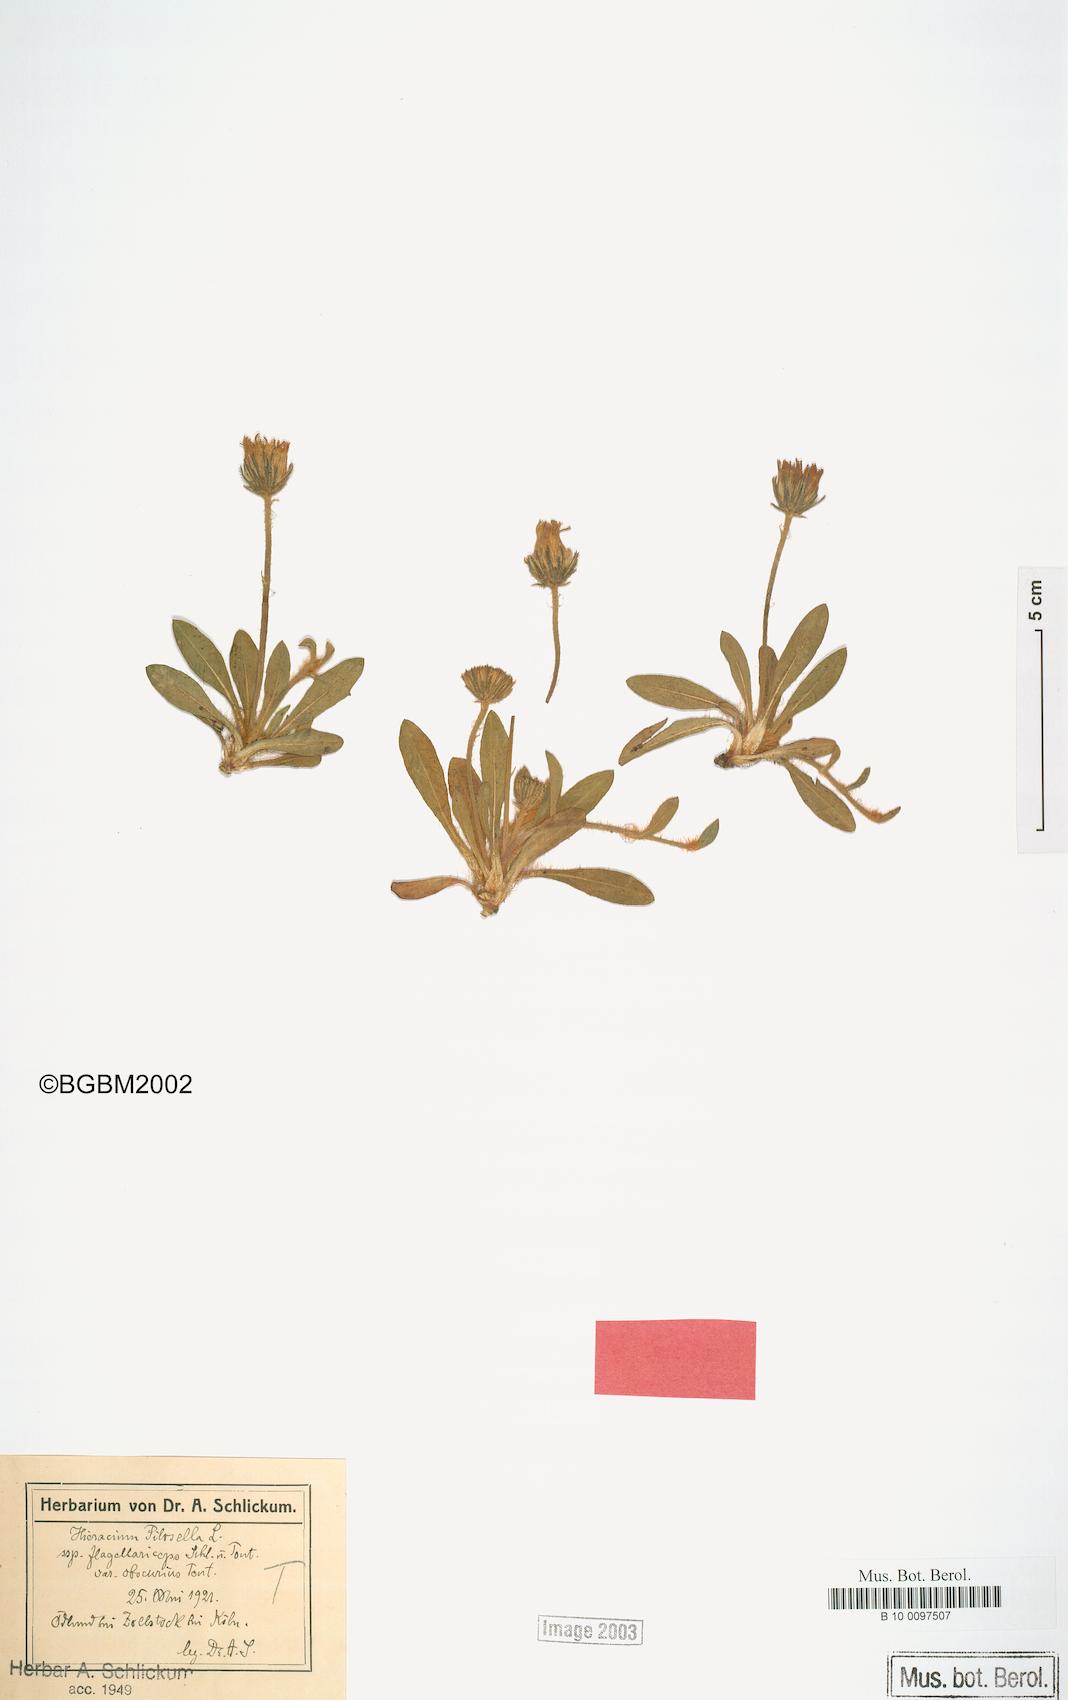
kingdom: Plantae
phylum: Tracheophyta
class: Magnoliopsida
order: Asterales
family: Asteraceae
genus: Pilosella
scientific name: Pilosella officinarum
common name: Mouse-ear hawkweed
